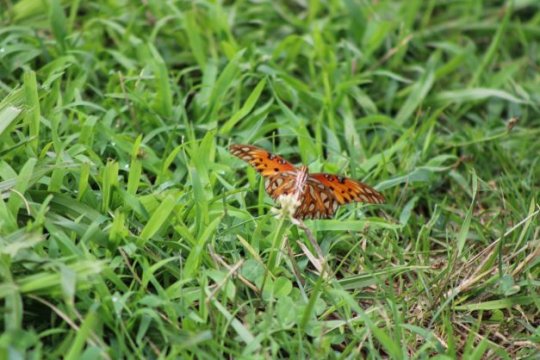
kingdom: Animalia
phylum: Arthropoda
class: Insecta
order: Lepidoptera
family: Nymphalidae
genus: Dione
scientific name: Dione vanillae
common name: Gulf Fritillary
